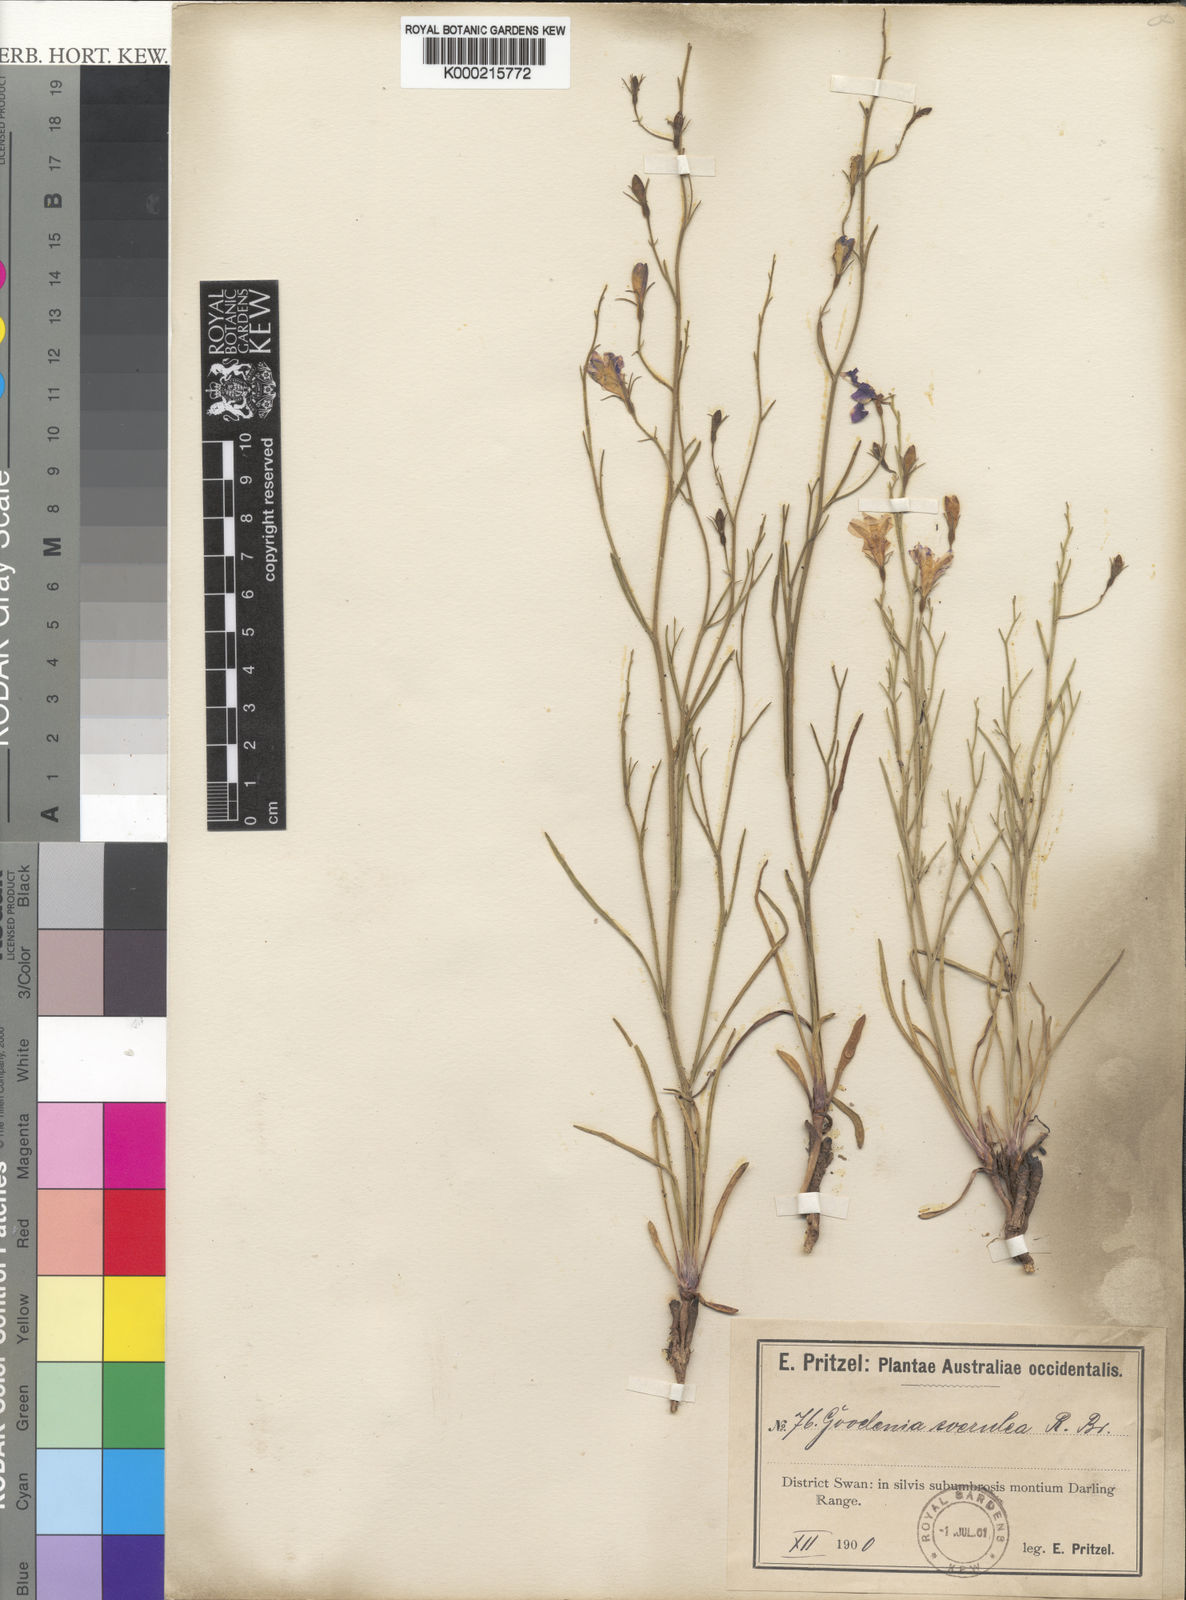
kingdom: Plantae
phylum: Tracheophyta
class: Magnoliopsida
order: Asterales
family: Goodeniaceae
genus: Goodenia
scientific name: Goodenia caerulea
